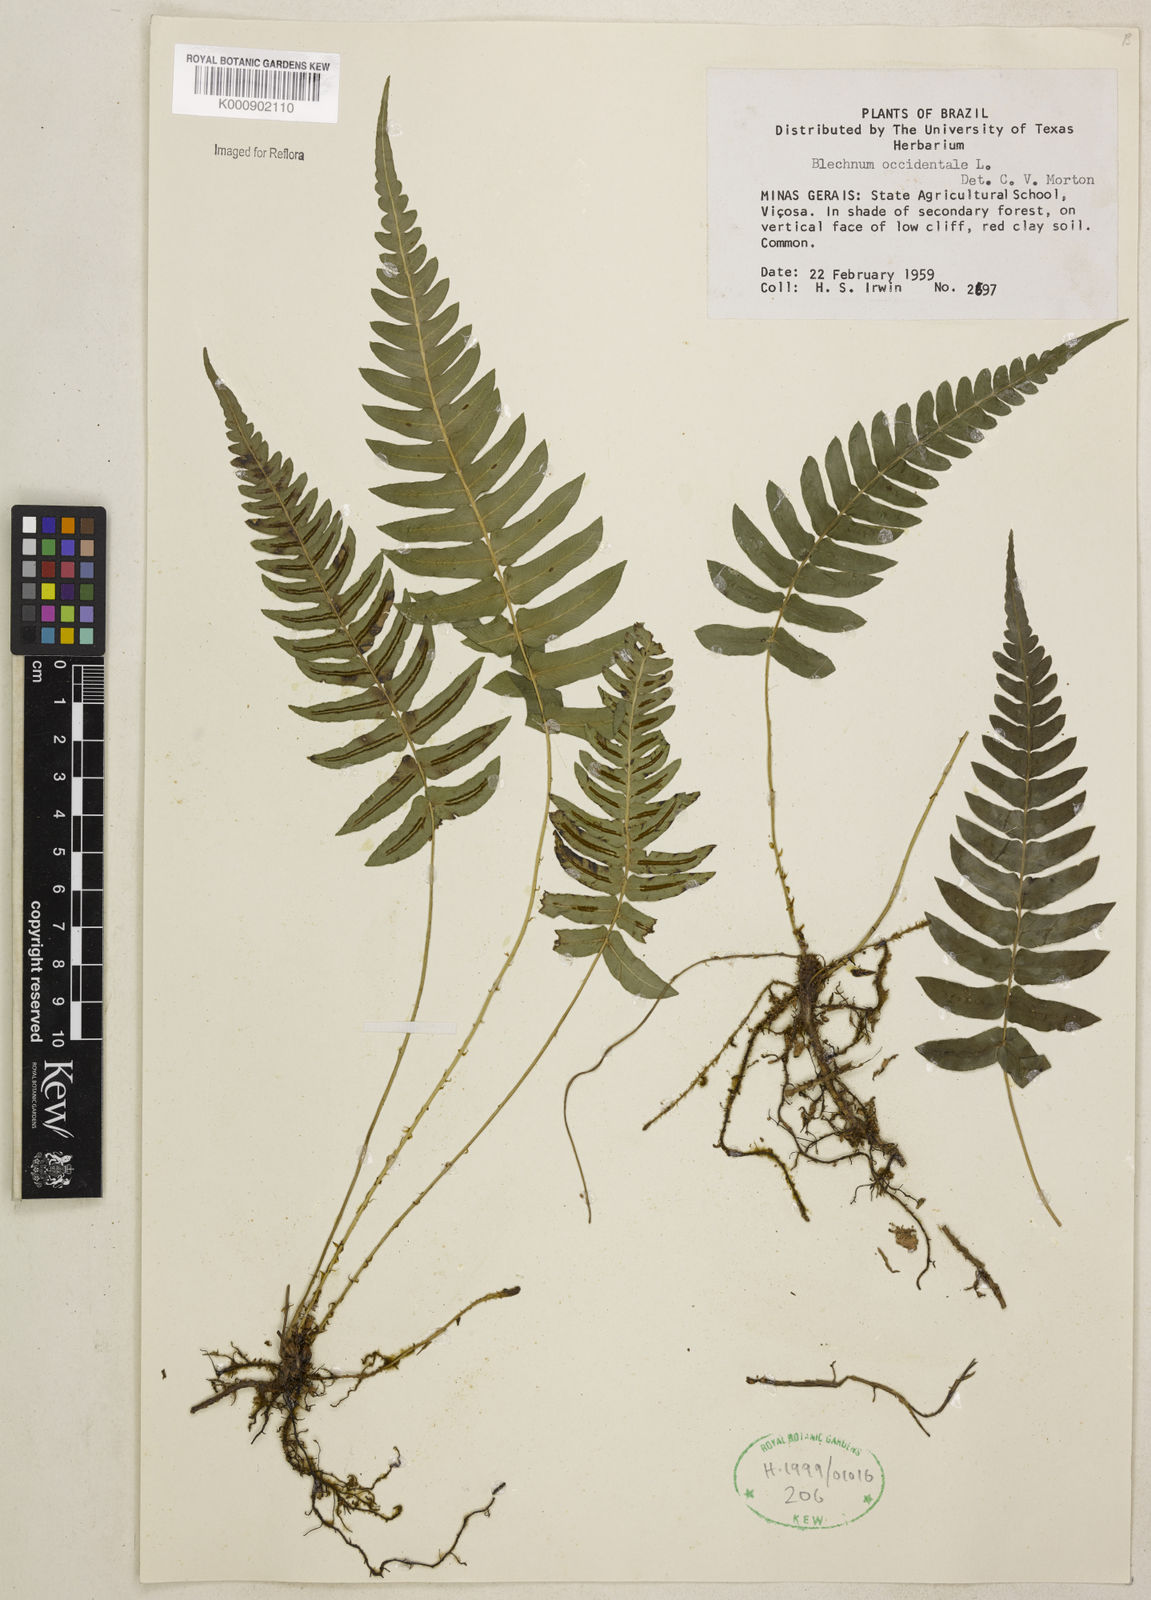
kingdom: Plantae
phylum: Tracheophyta
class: Polypodiopsida
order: Polypodiales
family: Blechnaceae
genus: Blechnum
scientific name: Blechnum occidentale
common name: Hammock fern
